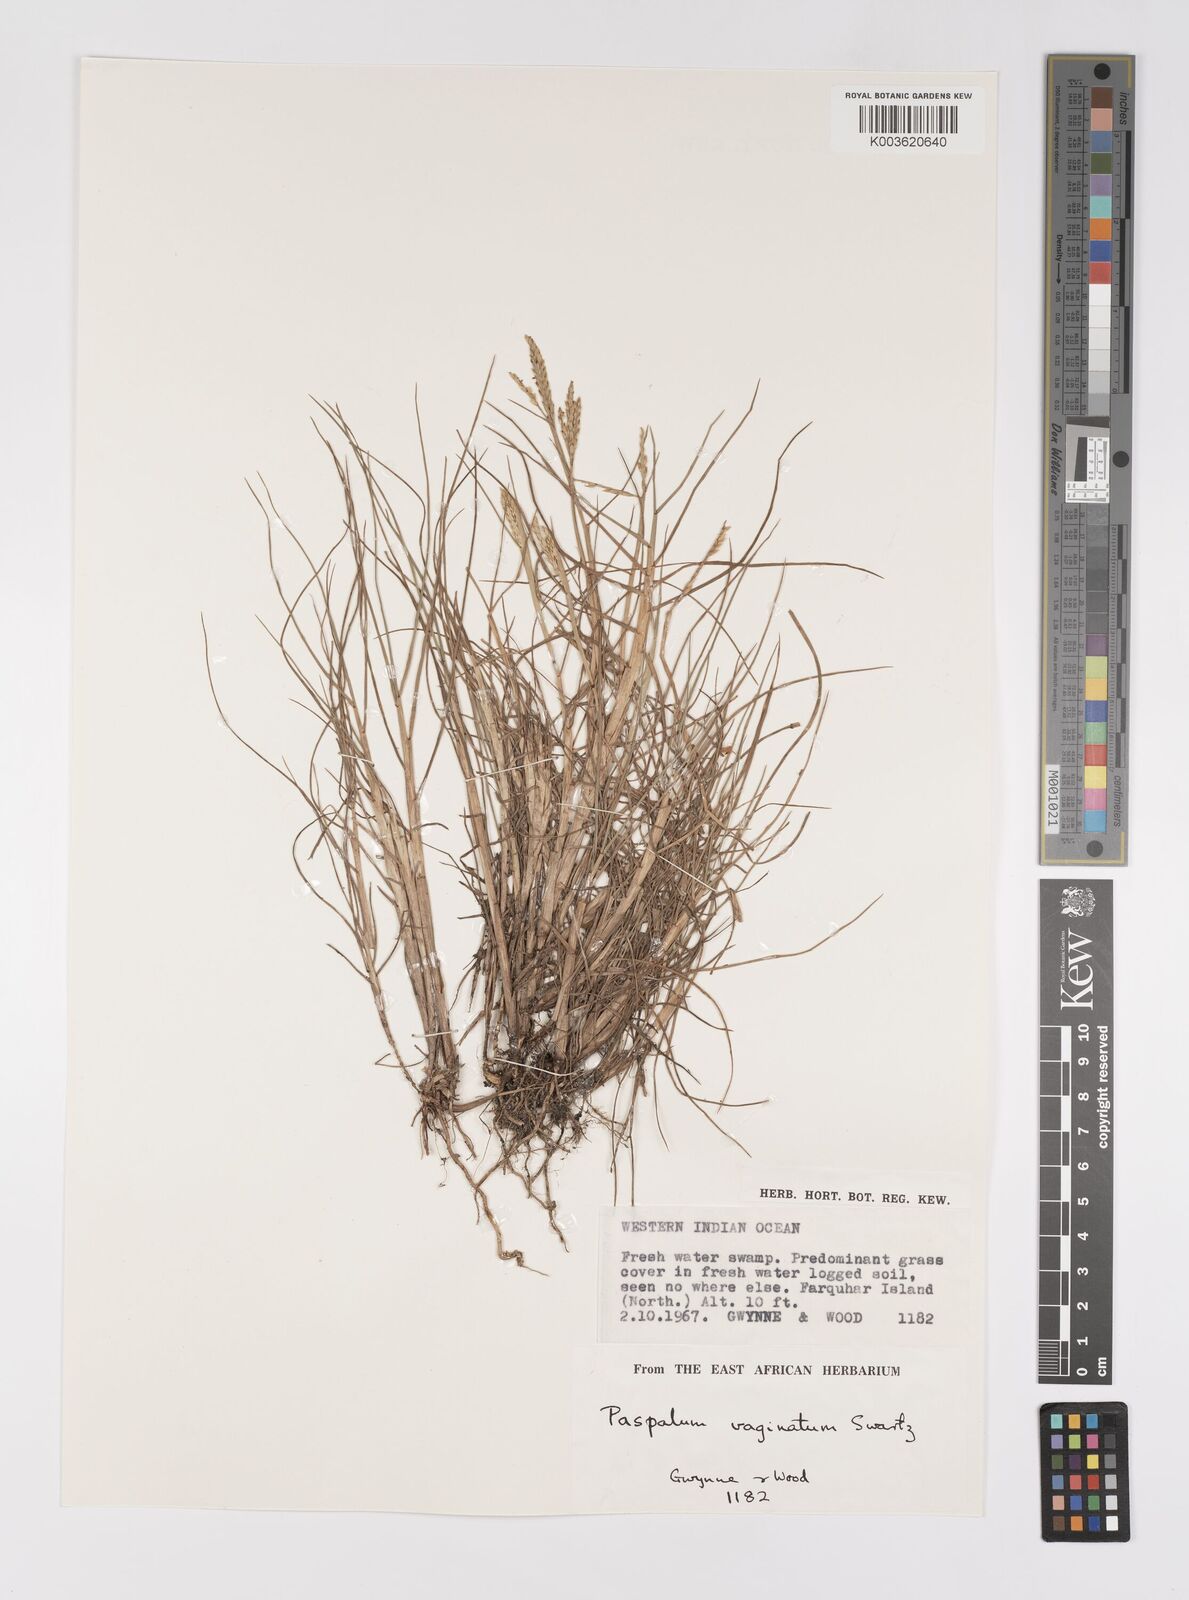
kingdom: Plantae
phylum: Tracheophyta
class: Liliopsida
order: Poales
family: Poaceae
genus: Paspalum
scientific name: Paspalum vaginatum
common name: Seashore paspalum
